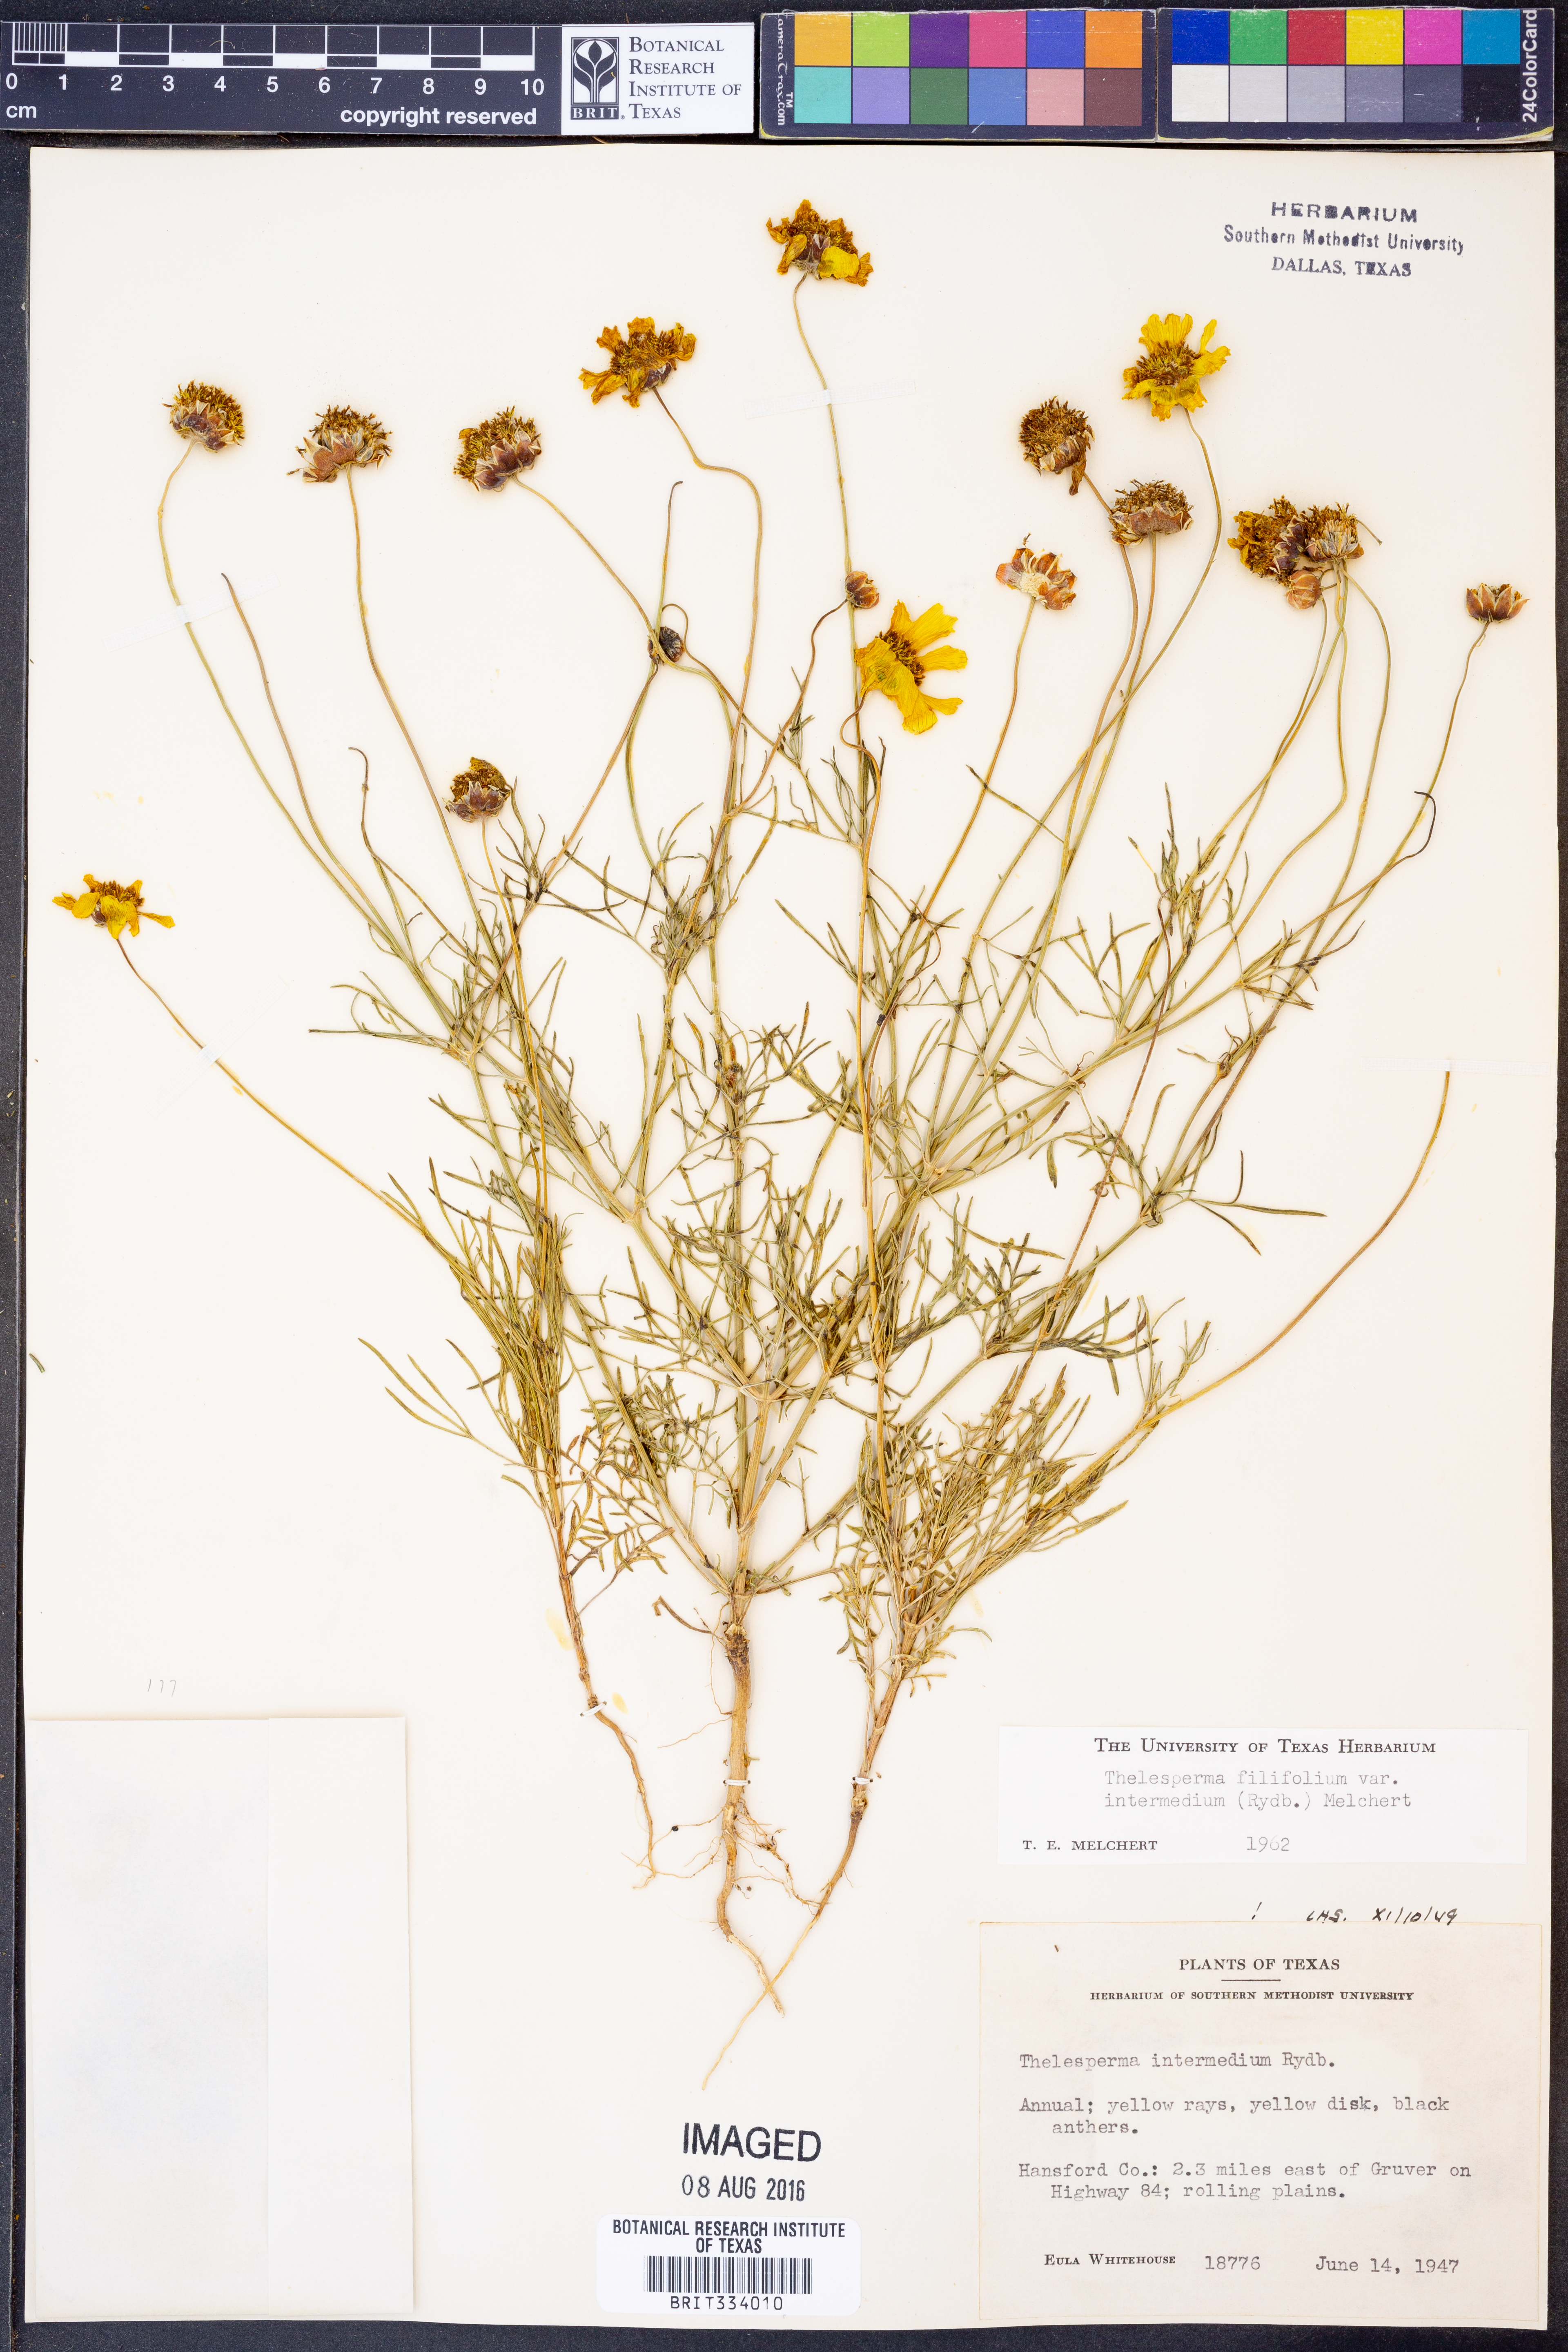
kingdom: Plantae
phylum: Tracheophyta
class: Magnoliopsida
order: Asterales
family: Asteraceae
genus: Thelesperma
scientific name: Thelesperma filifolium
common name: Stiff greenthread
